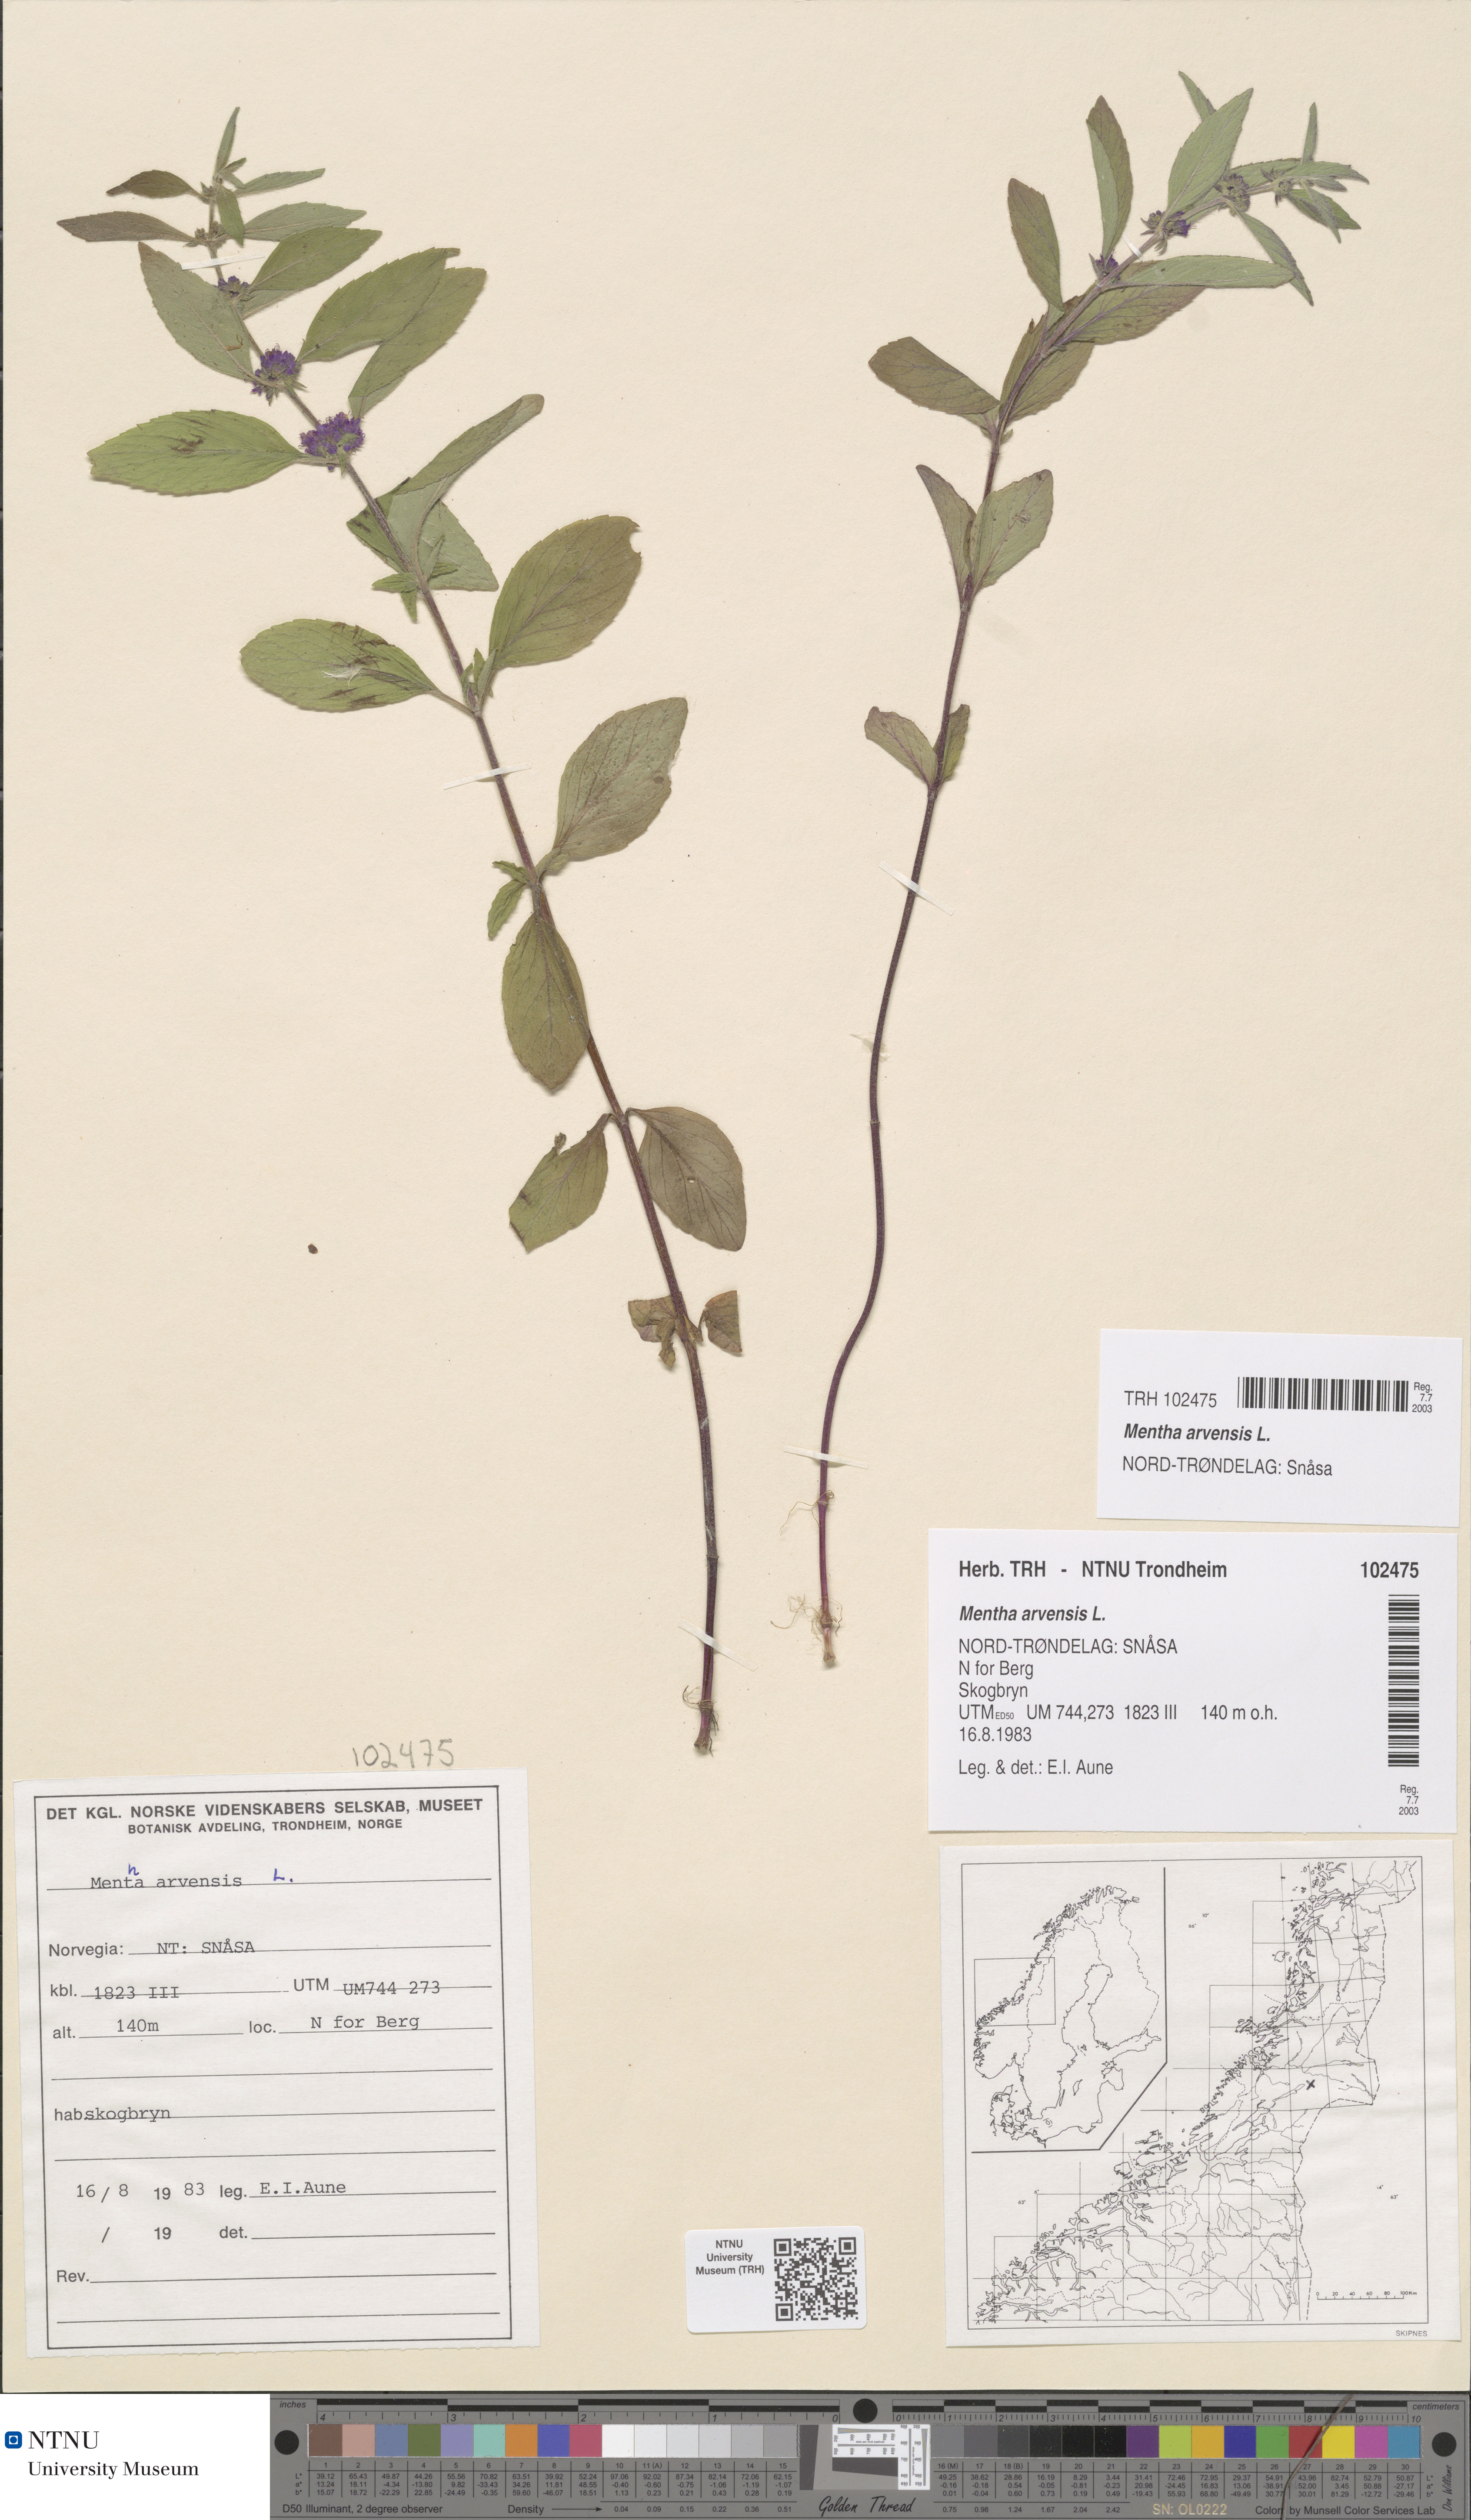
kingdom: Plantae
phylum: Tracheophyta
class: Magnoliopsida
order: Lamiales
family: Lamiaceae
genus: Mentha
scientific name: Mentha arvensis
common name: Corn mint
